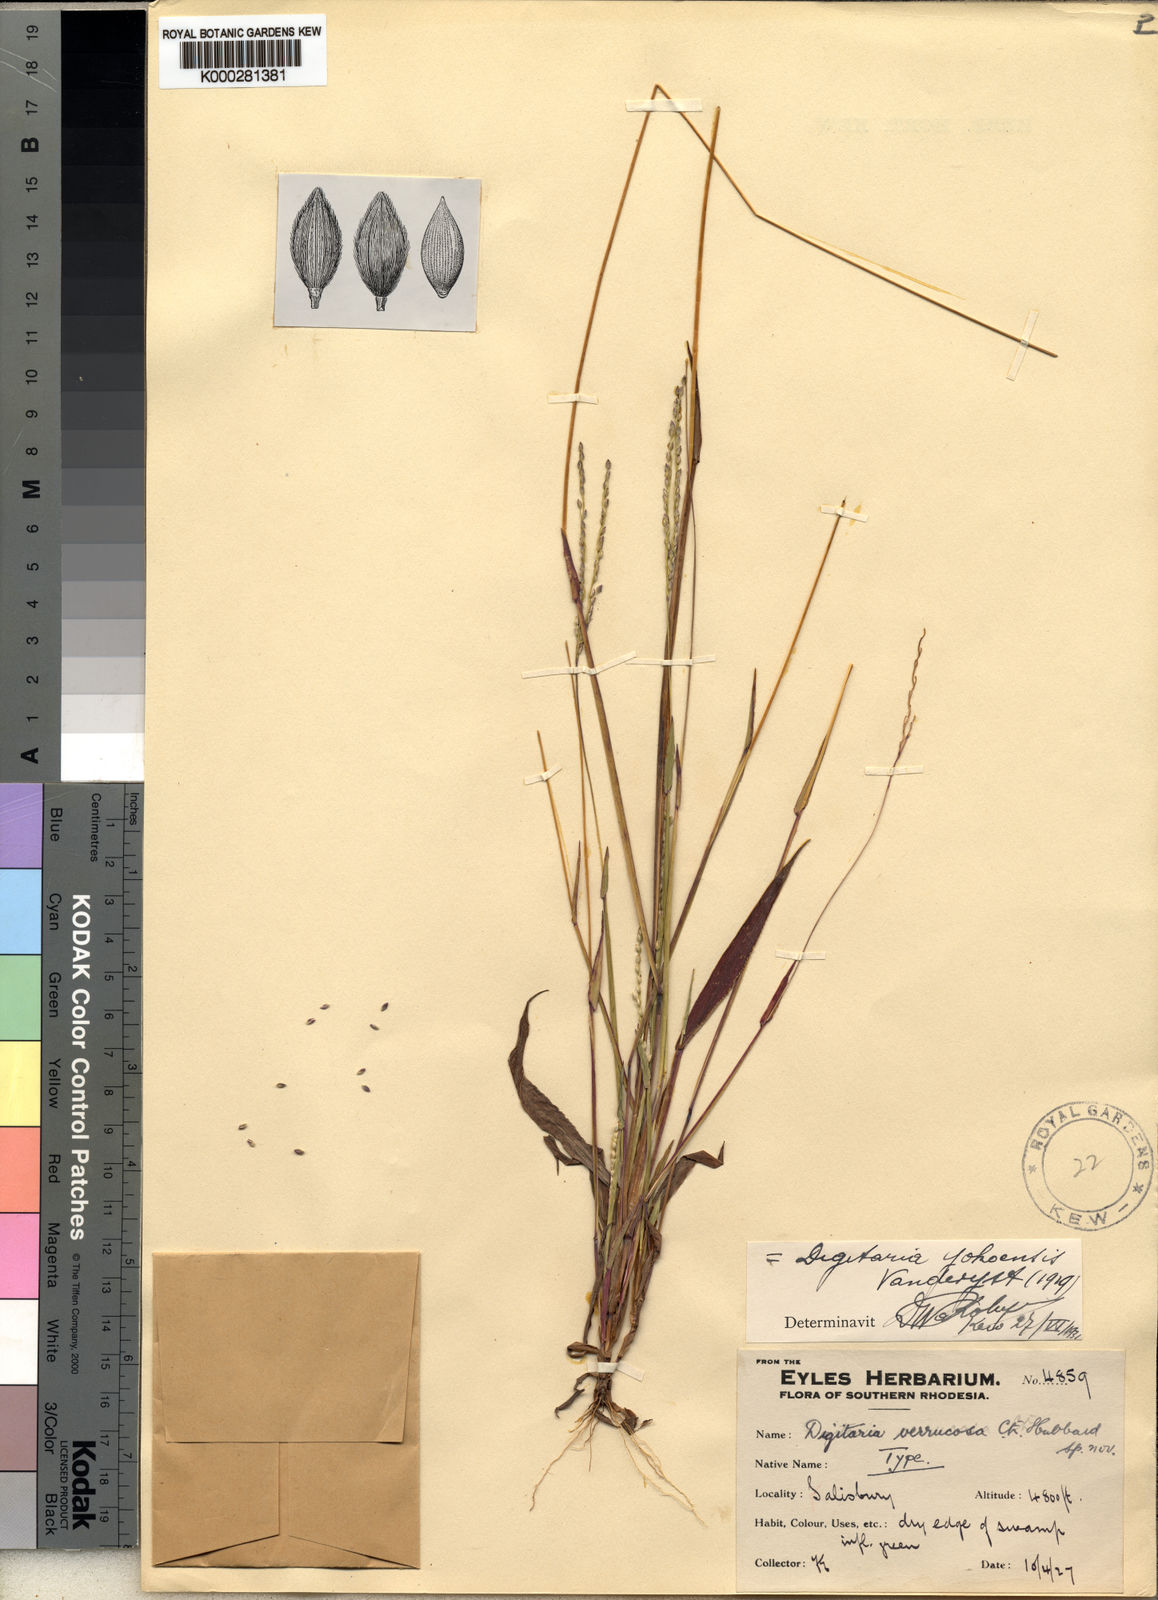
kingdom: Plantae
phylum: Tracheophyta
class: Liliopsida
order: Poales
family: Poaceae
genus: Digitaria
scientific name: Digitaria angolensis
